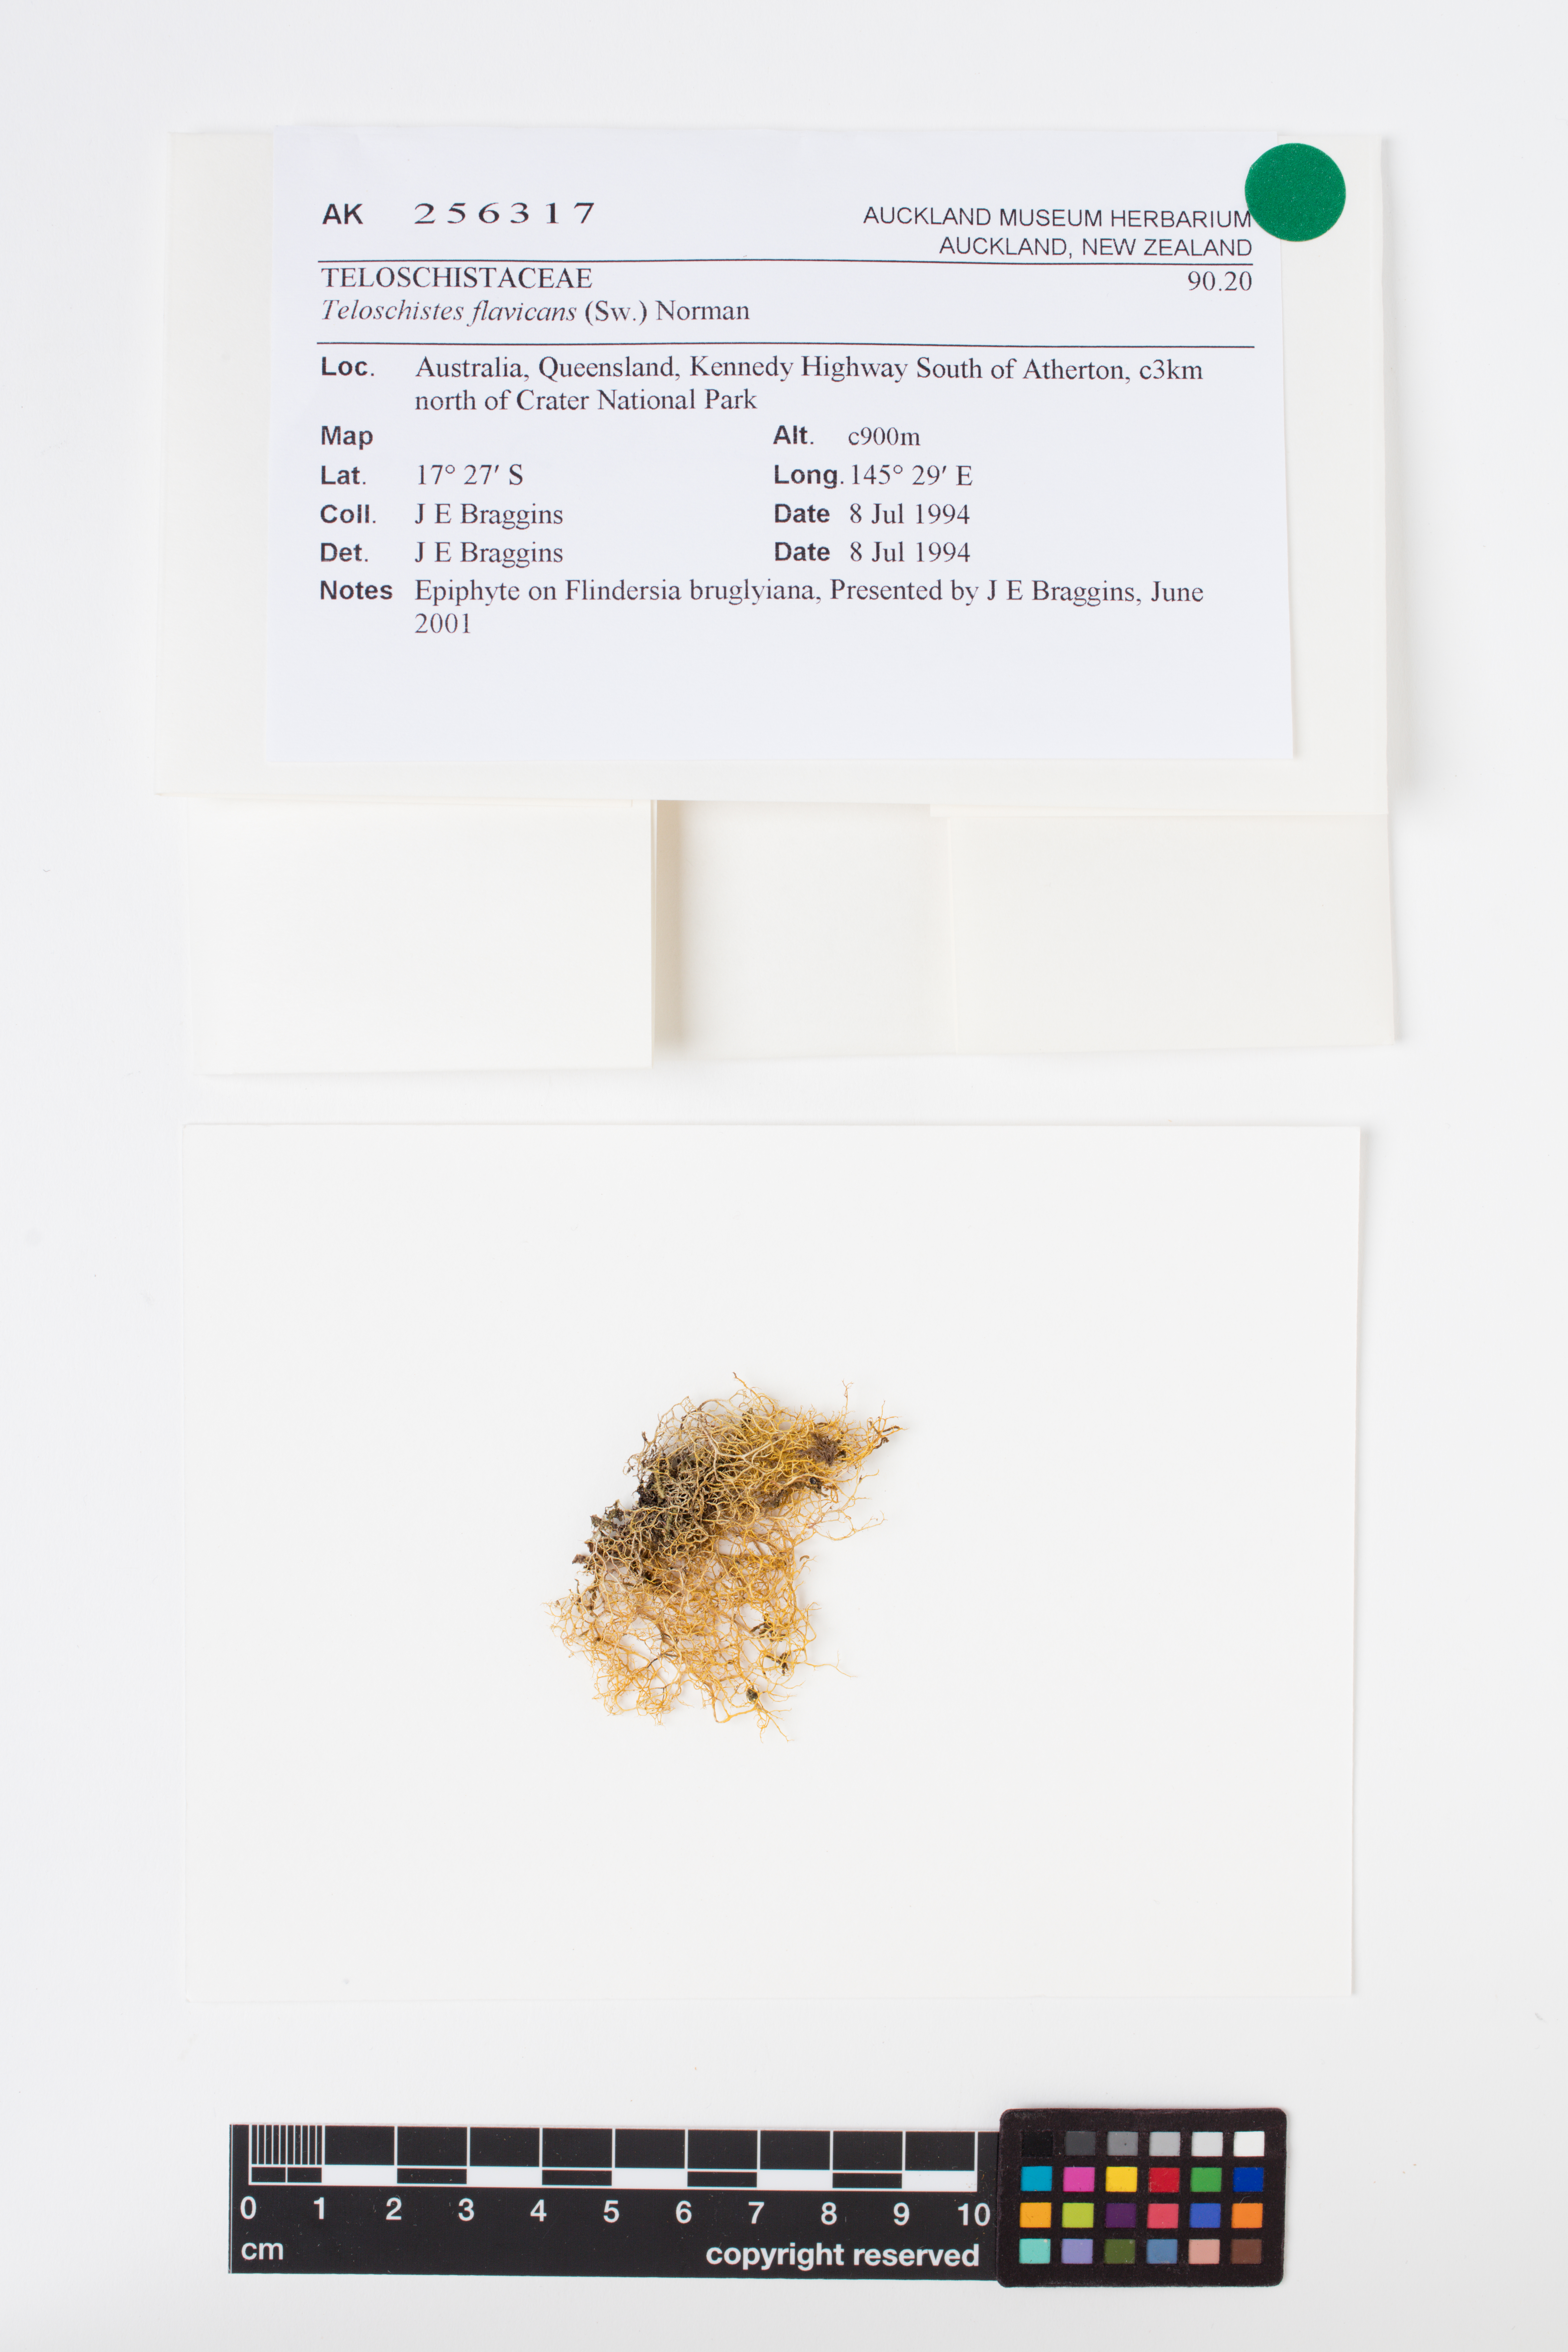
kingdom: Fungi
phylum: Ascomycota
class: Lecanoromycetes
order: Teloschistales
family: Teloschistaceae
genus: Teloschistes
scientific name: Teloschistes flavicans
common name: Golden hair-lichen
